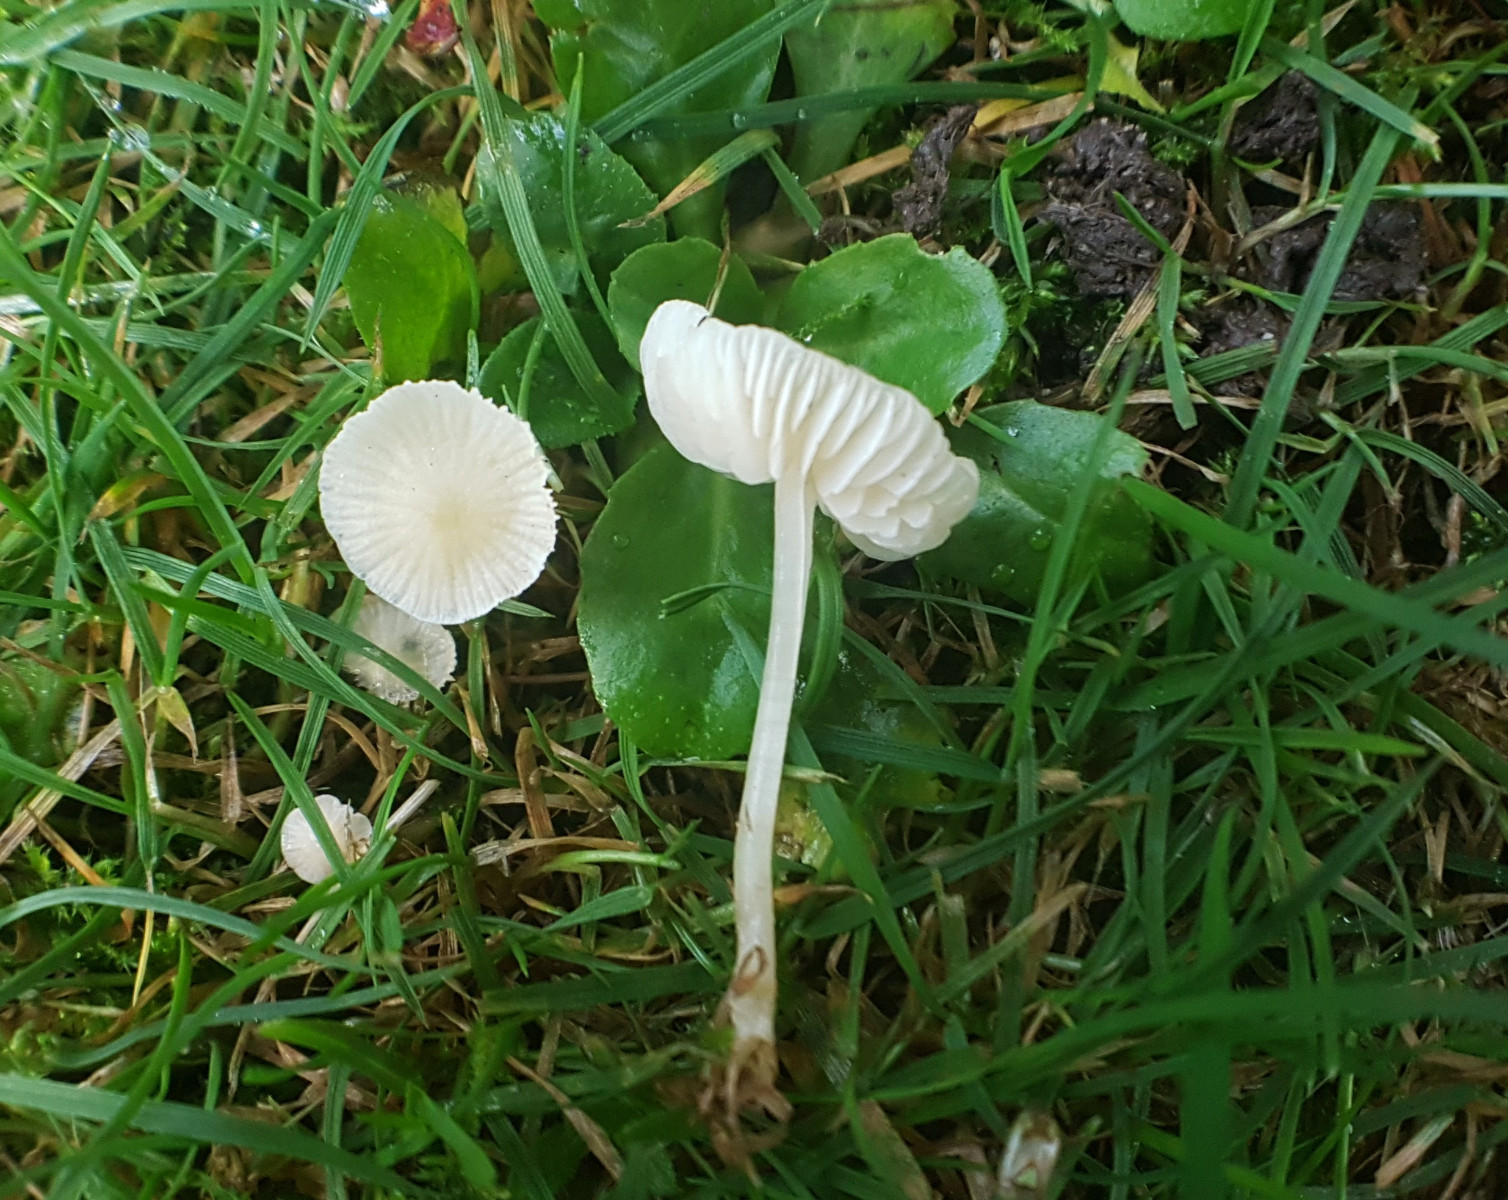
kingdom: Fungi
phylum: Basidiomycota
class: Agaricomycetes
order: Agaricales
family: Mycenaceae
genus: Atheniella
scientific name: Atheniella flavoalba
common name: gulhvid huesvamp
